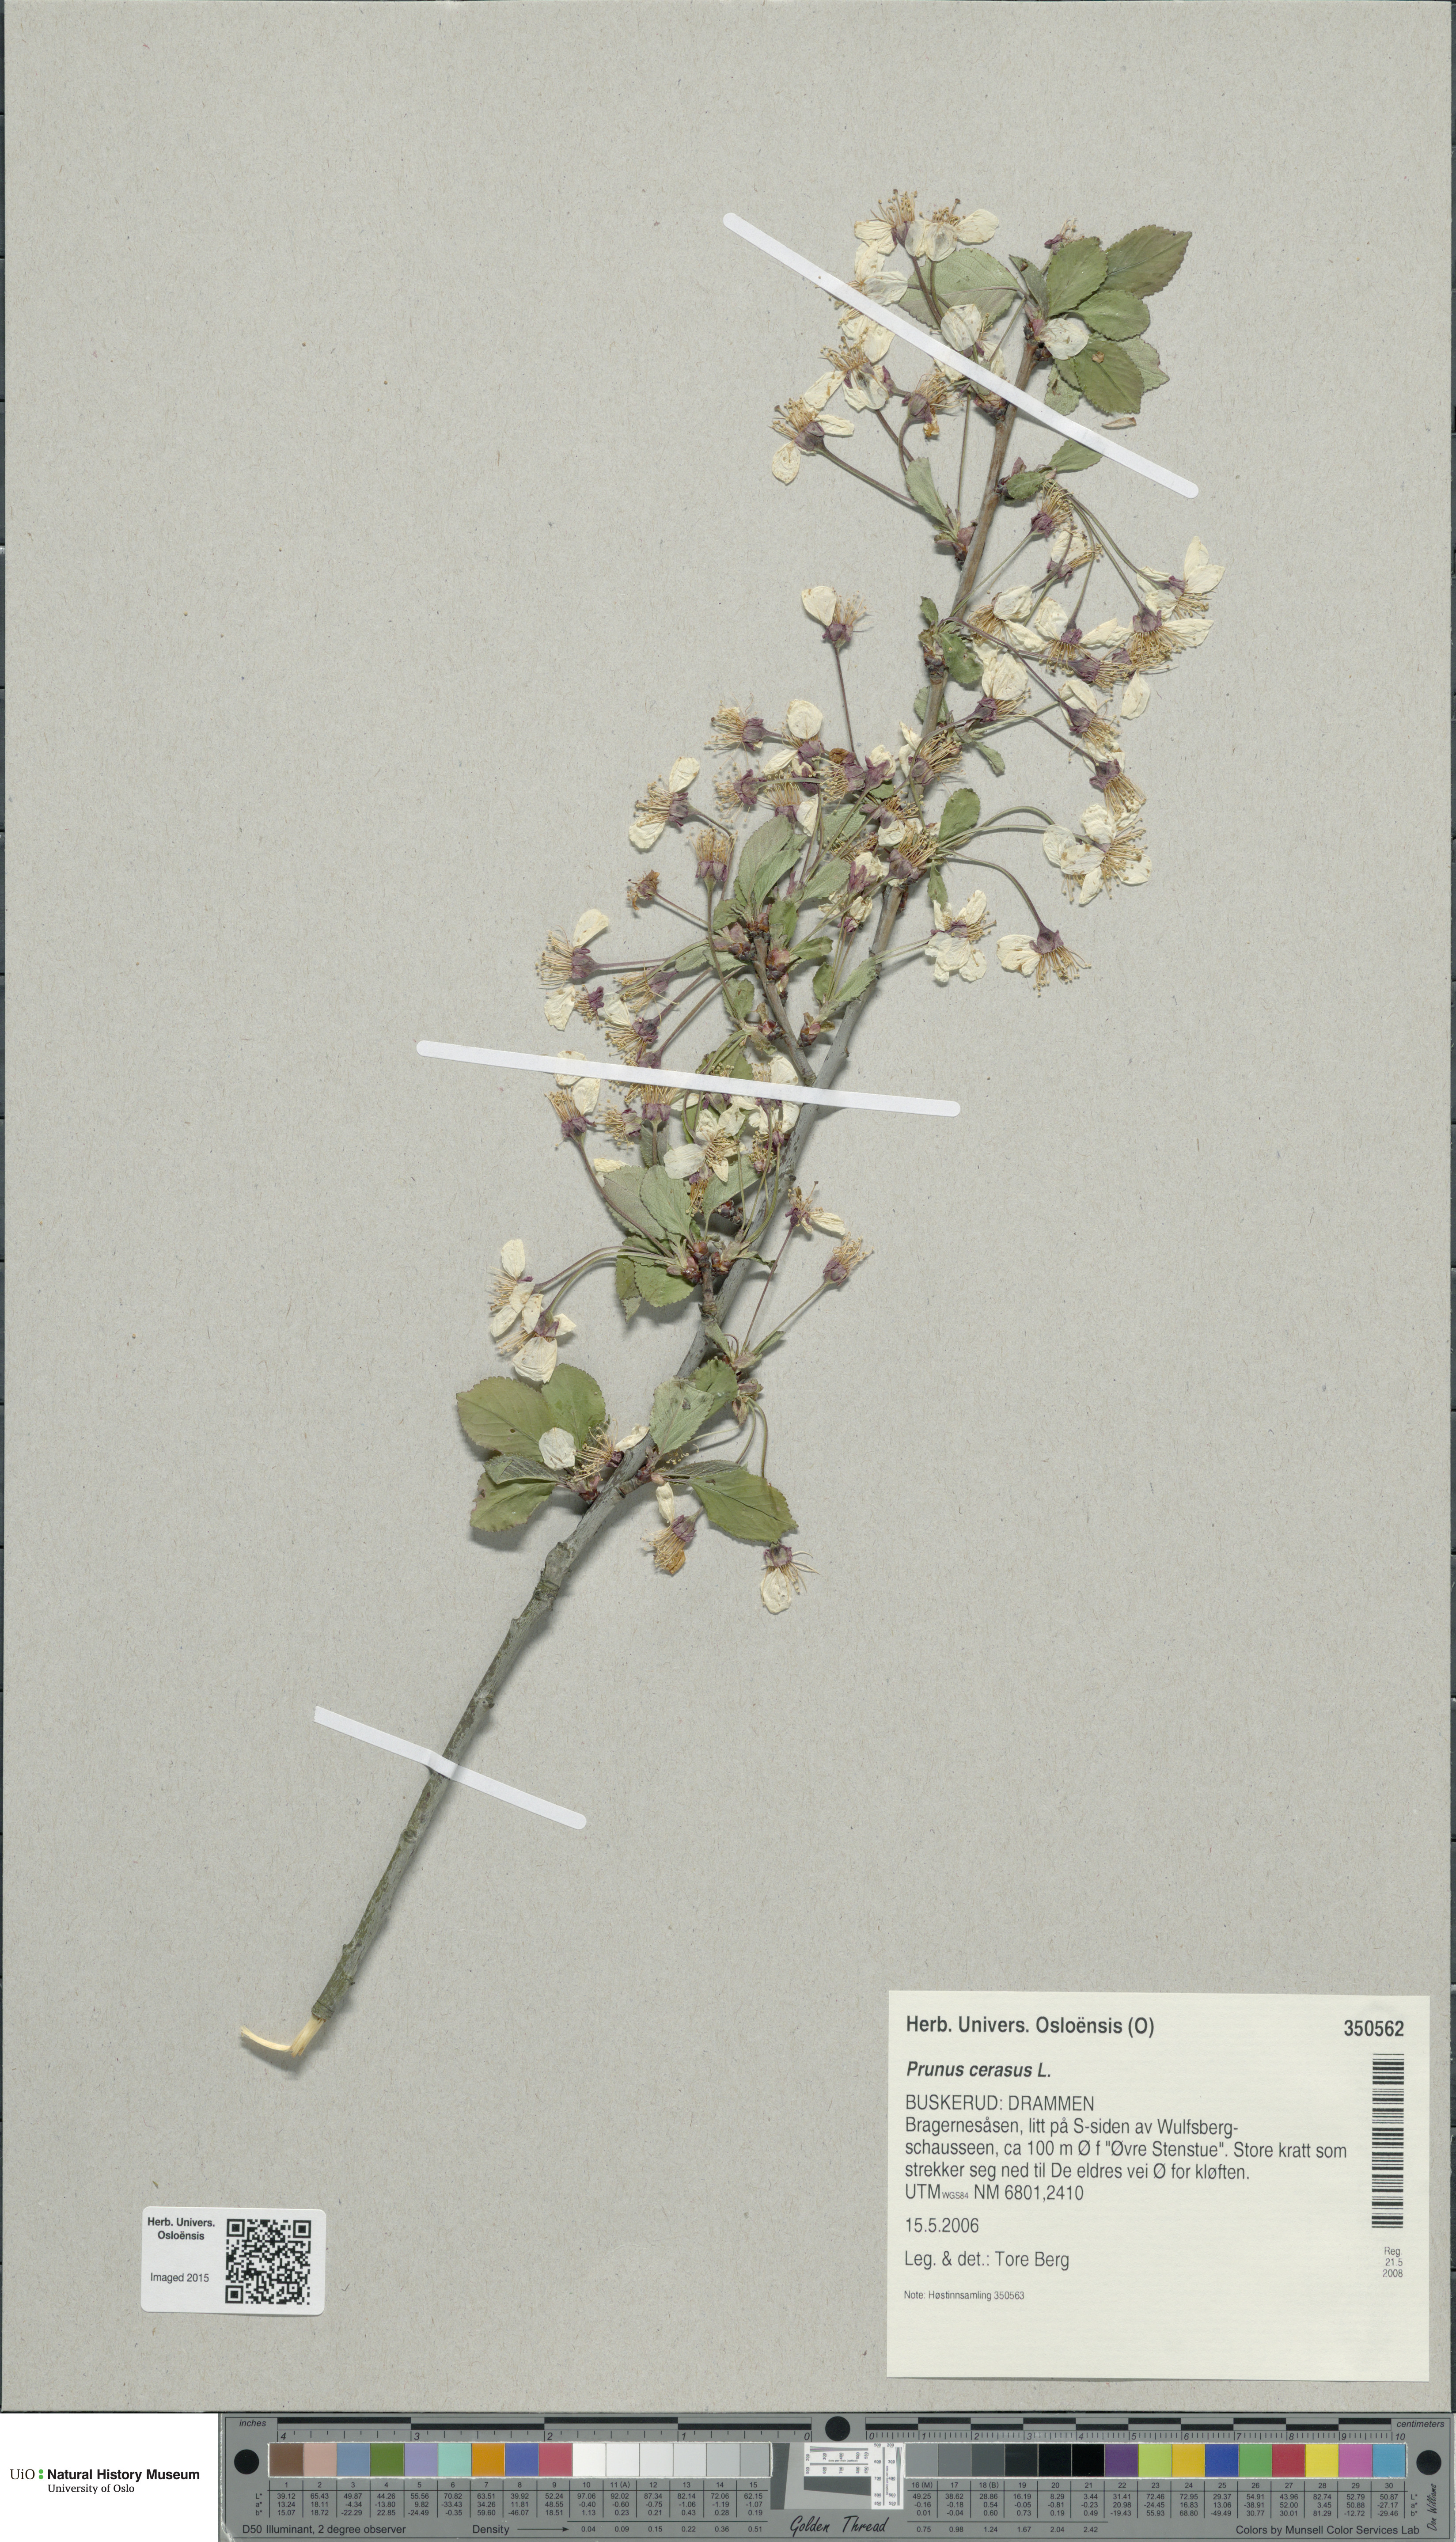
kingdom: Plantae
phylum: Tracheophyta
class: Magnoliopsida
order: Rosales
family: Rosaceae
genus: Prunus
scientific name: Prunus cerasus
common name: Morello cherry
